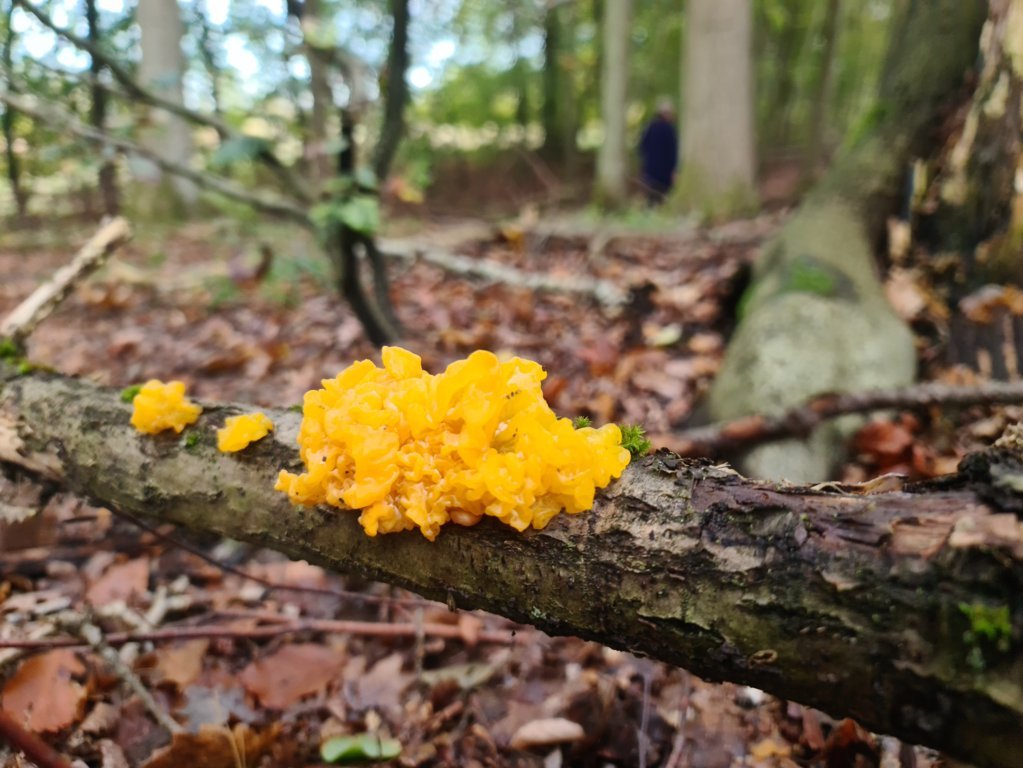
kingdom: Fungi
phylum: Basidiomycota
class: Tremellomycetes
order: Tremellales
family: Tremellaceae
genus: Tremella
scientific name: Tremella mesenterica
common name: gul bævresvamp
